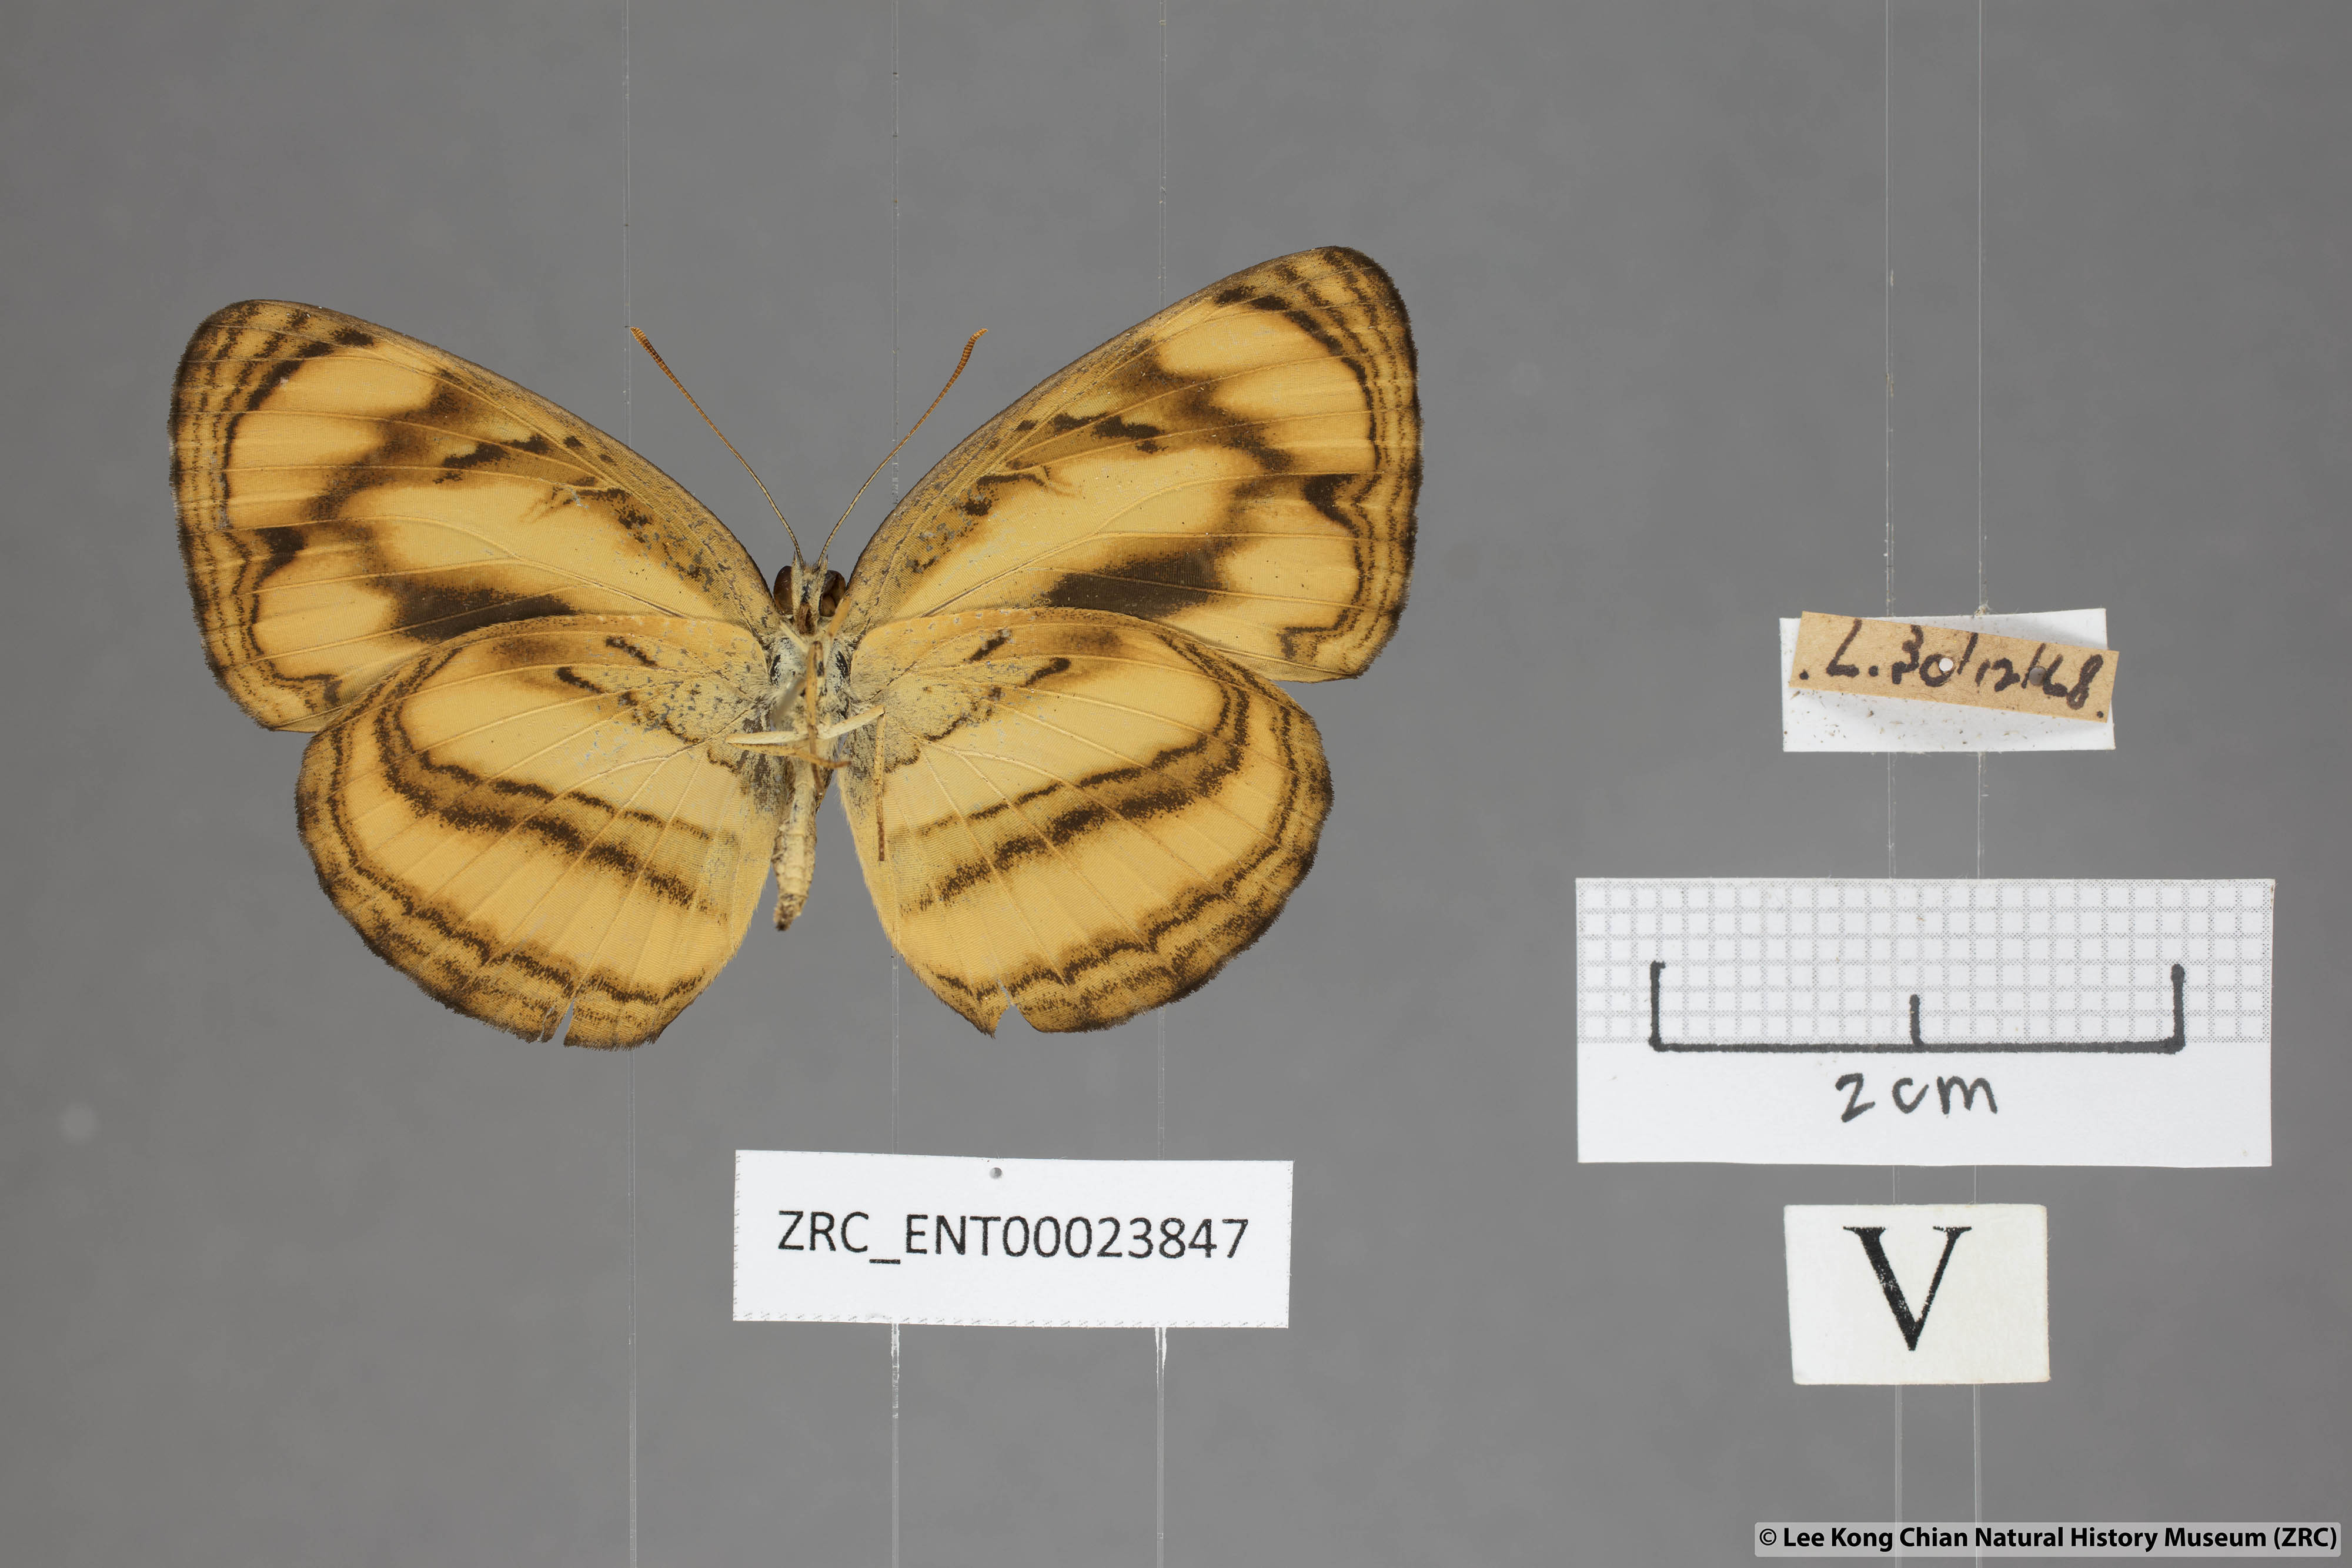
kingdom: Animalia
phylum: Arthropoda
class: Insecta
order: Lepidoptera
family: Nymphalidae
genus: Lasippa
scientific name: Lasippa tiga
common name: Malayan lascar
